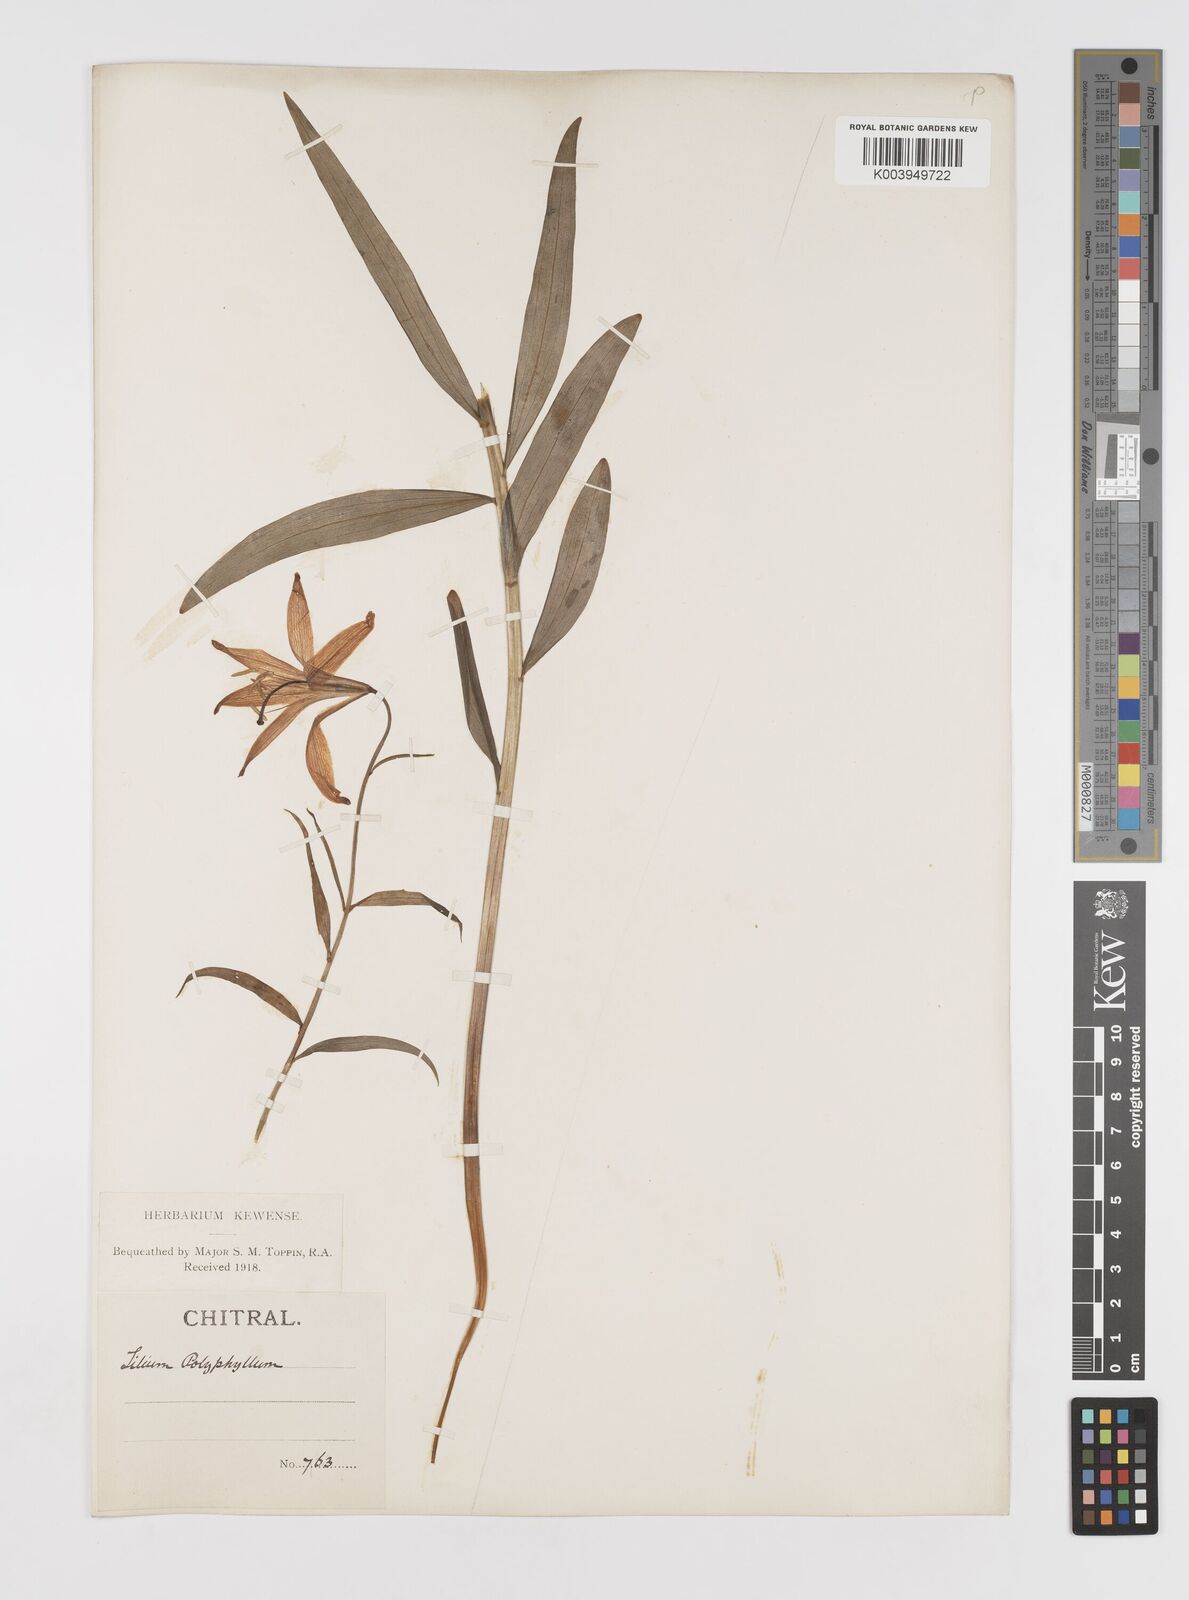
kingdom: Plantae
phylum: Tracheophyta
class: Liliopsida
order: Liliales
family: Liliaceae
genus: Lilium
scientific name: Lilium polyphyllum
